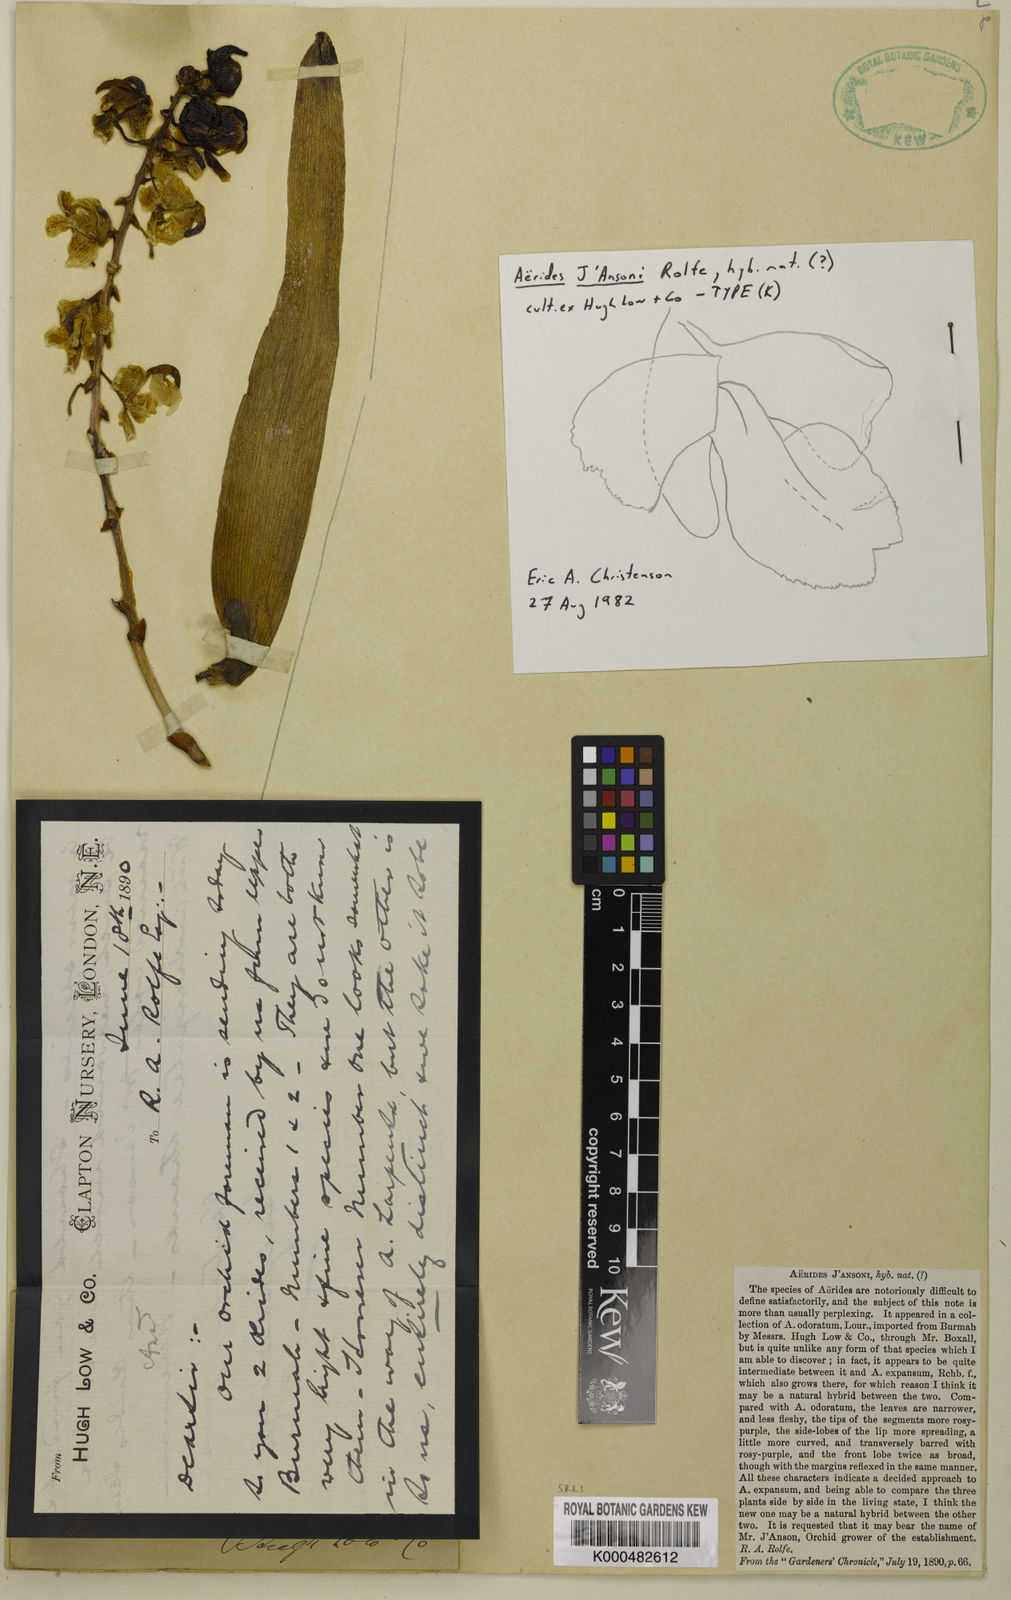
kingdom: Plantae
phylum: Tracheophyta
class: Liliopsida
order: Asparagales
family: Orchidaceae
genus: Aerides
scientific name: Aerides jansonii
